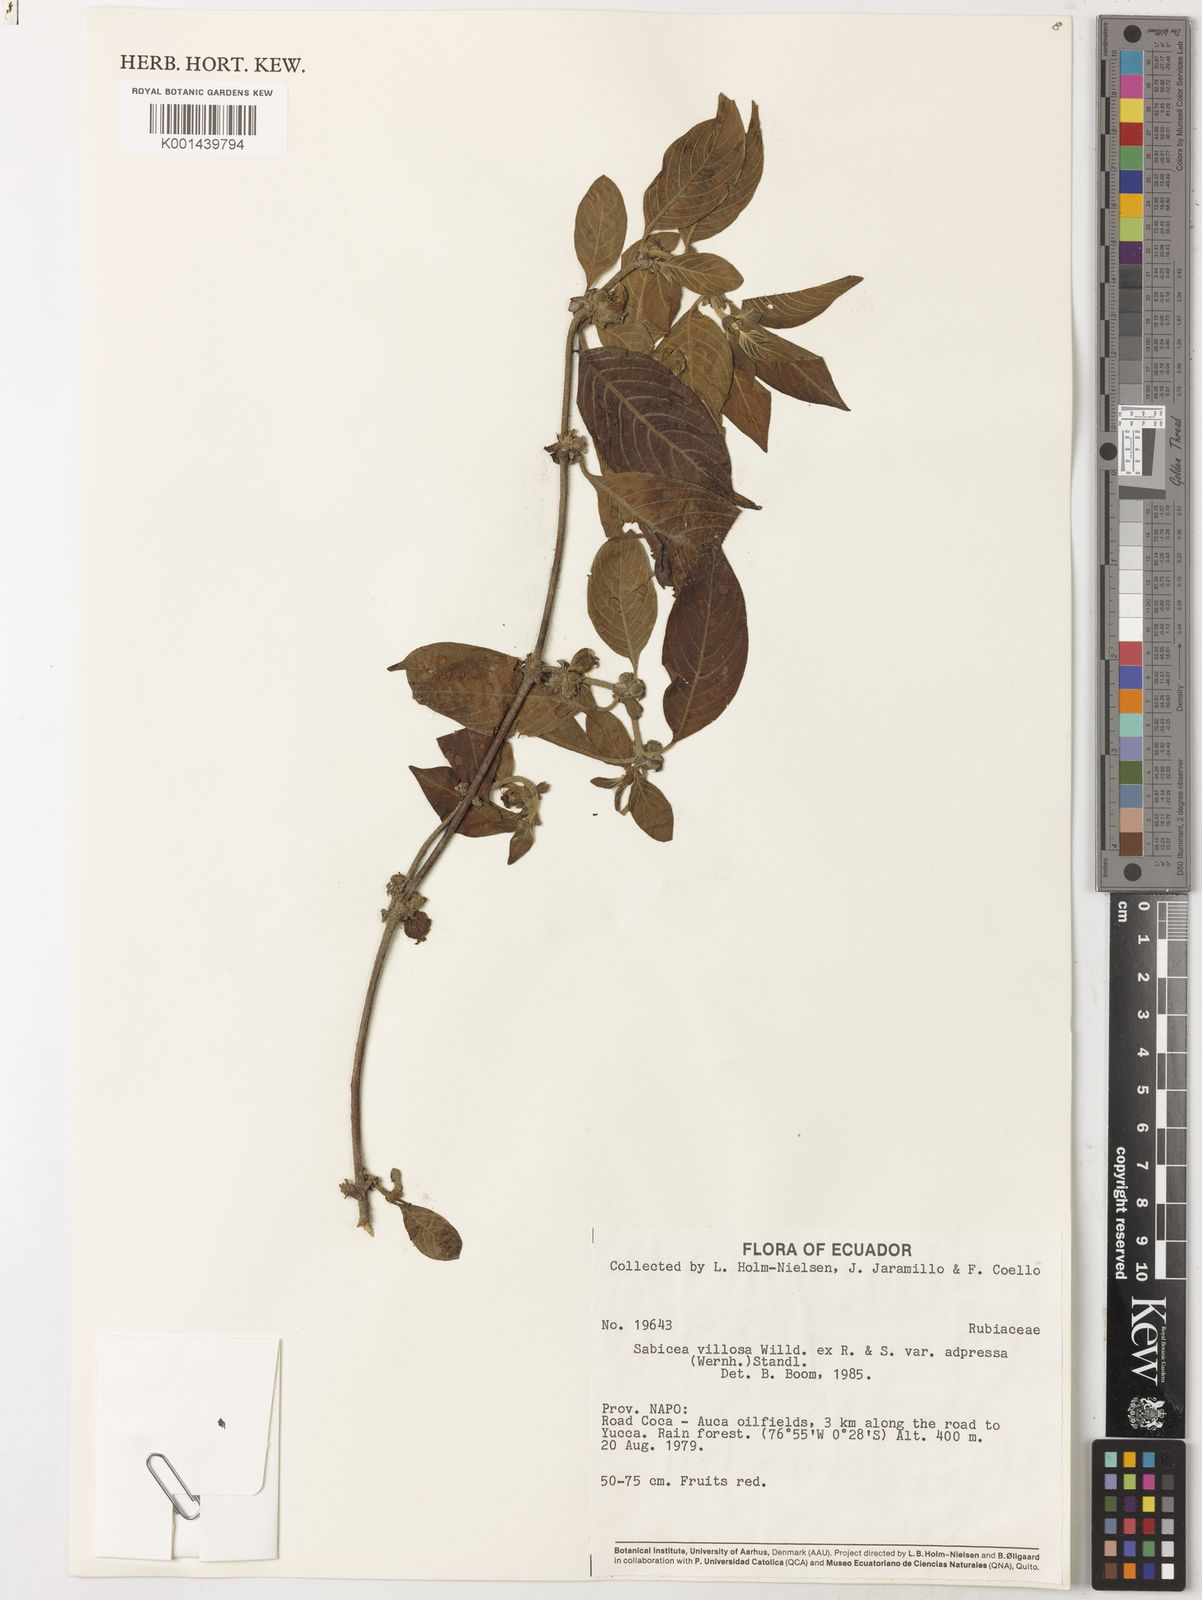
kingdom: Plantae
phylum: Tracheophyta
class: Magnoliopsida
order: Gentianales
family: Rubiaceae
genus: Sabicea
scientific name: Sabicea villosa
